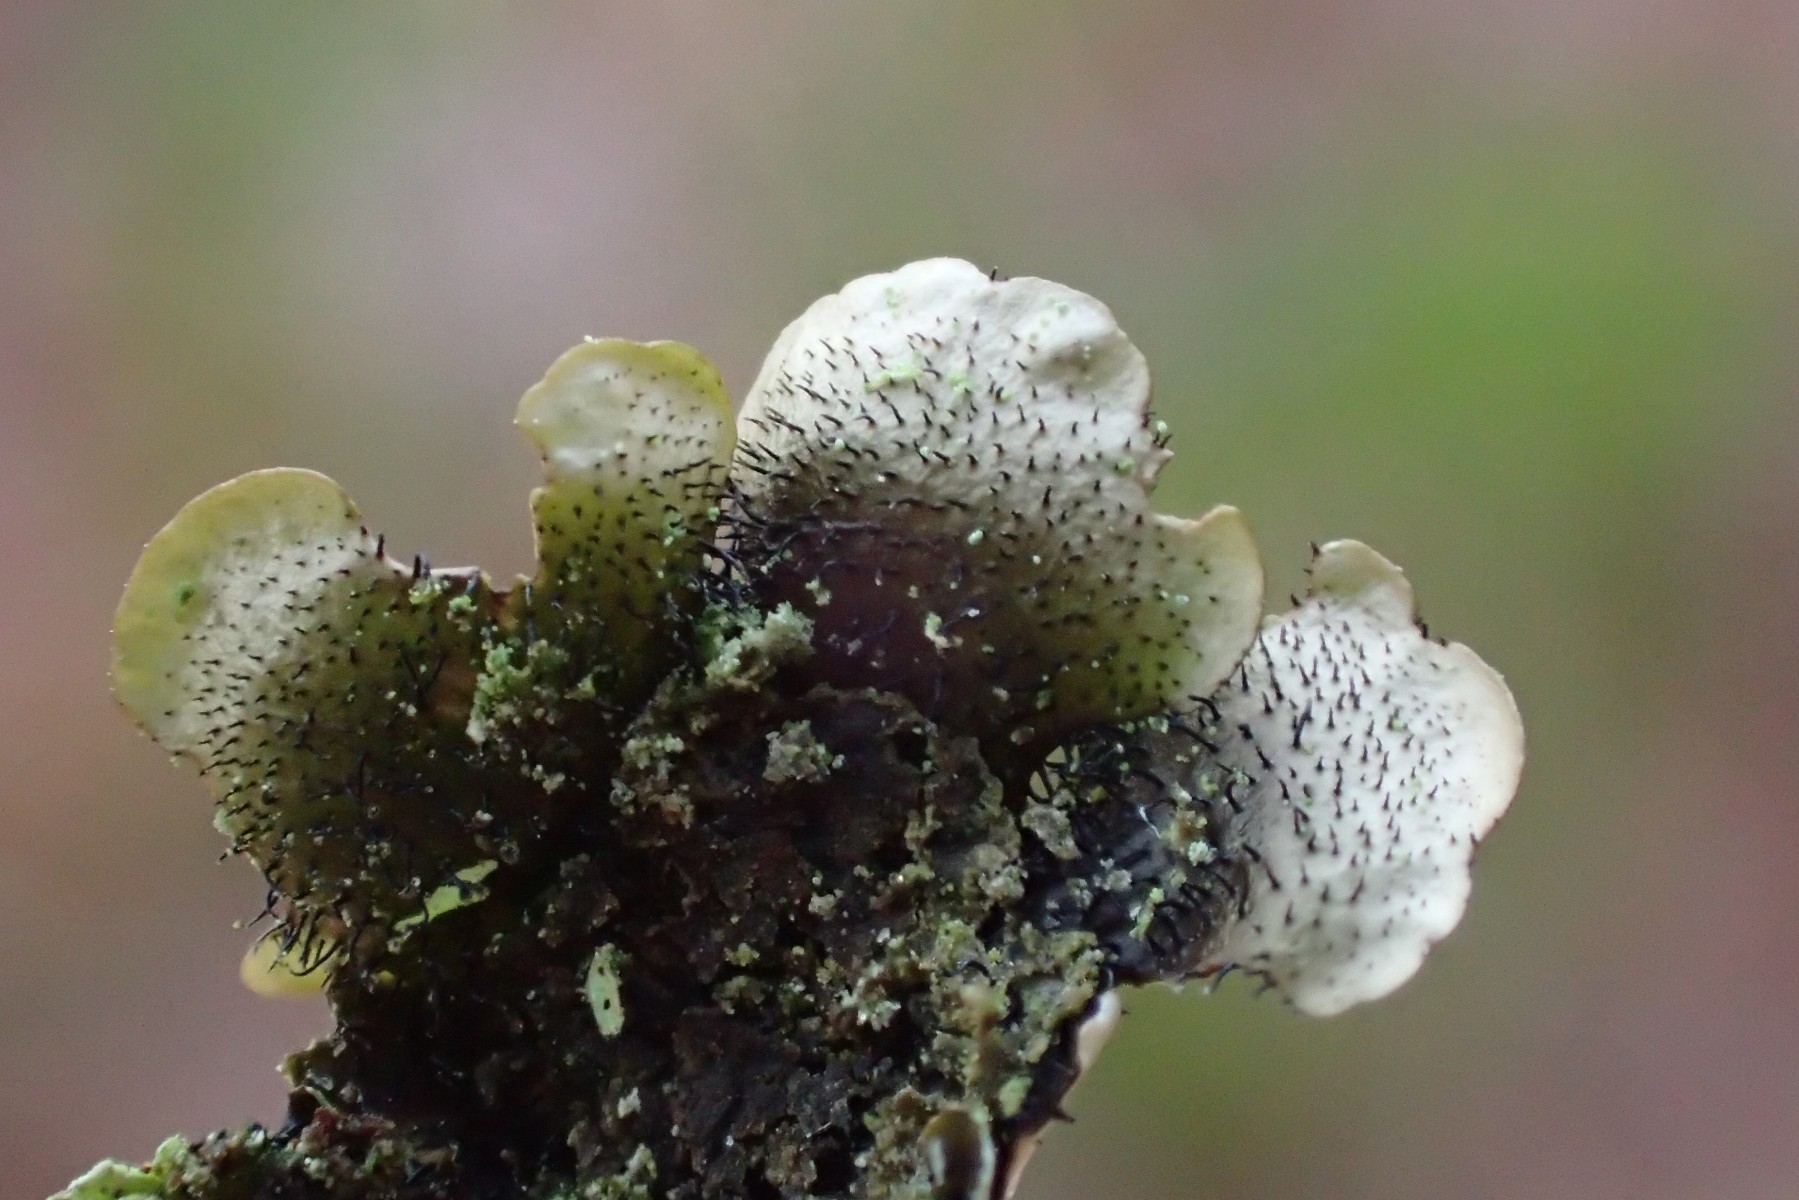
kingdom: Fungi
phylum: Ascomycota
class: Lecanoromycetes
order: Lecanorales
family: Parmeliaceae
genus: Hypotrachyna
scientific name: Hypotrachyna revoluta
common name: bleggrå skållav
